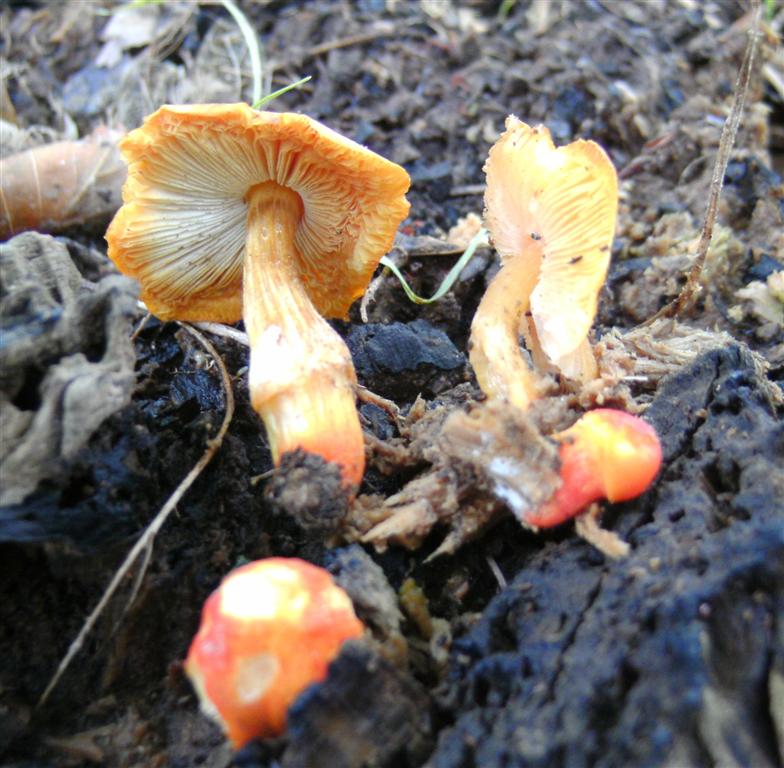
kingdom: Fungi
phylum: Basidiomycota
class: Agaricomycetes
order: Agaricales
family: Pluteaceae
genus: Pluteus
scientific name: Pluteus aurantiorugosus
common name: skarlagen-skærmhat
